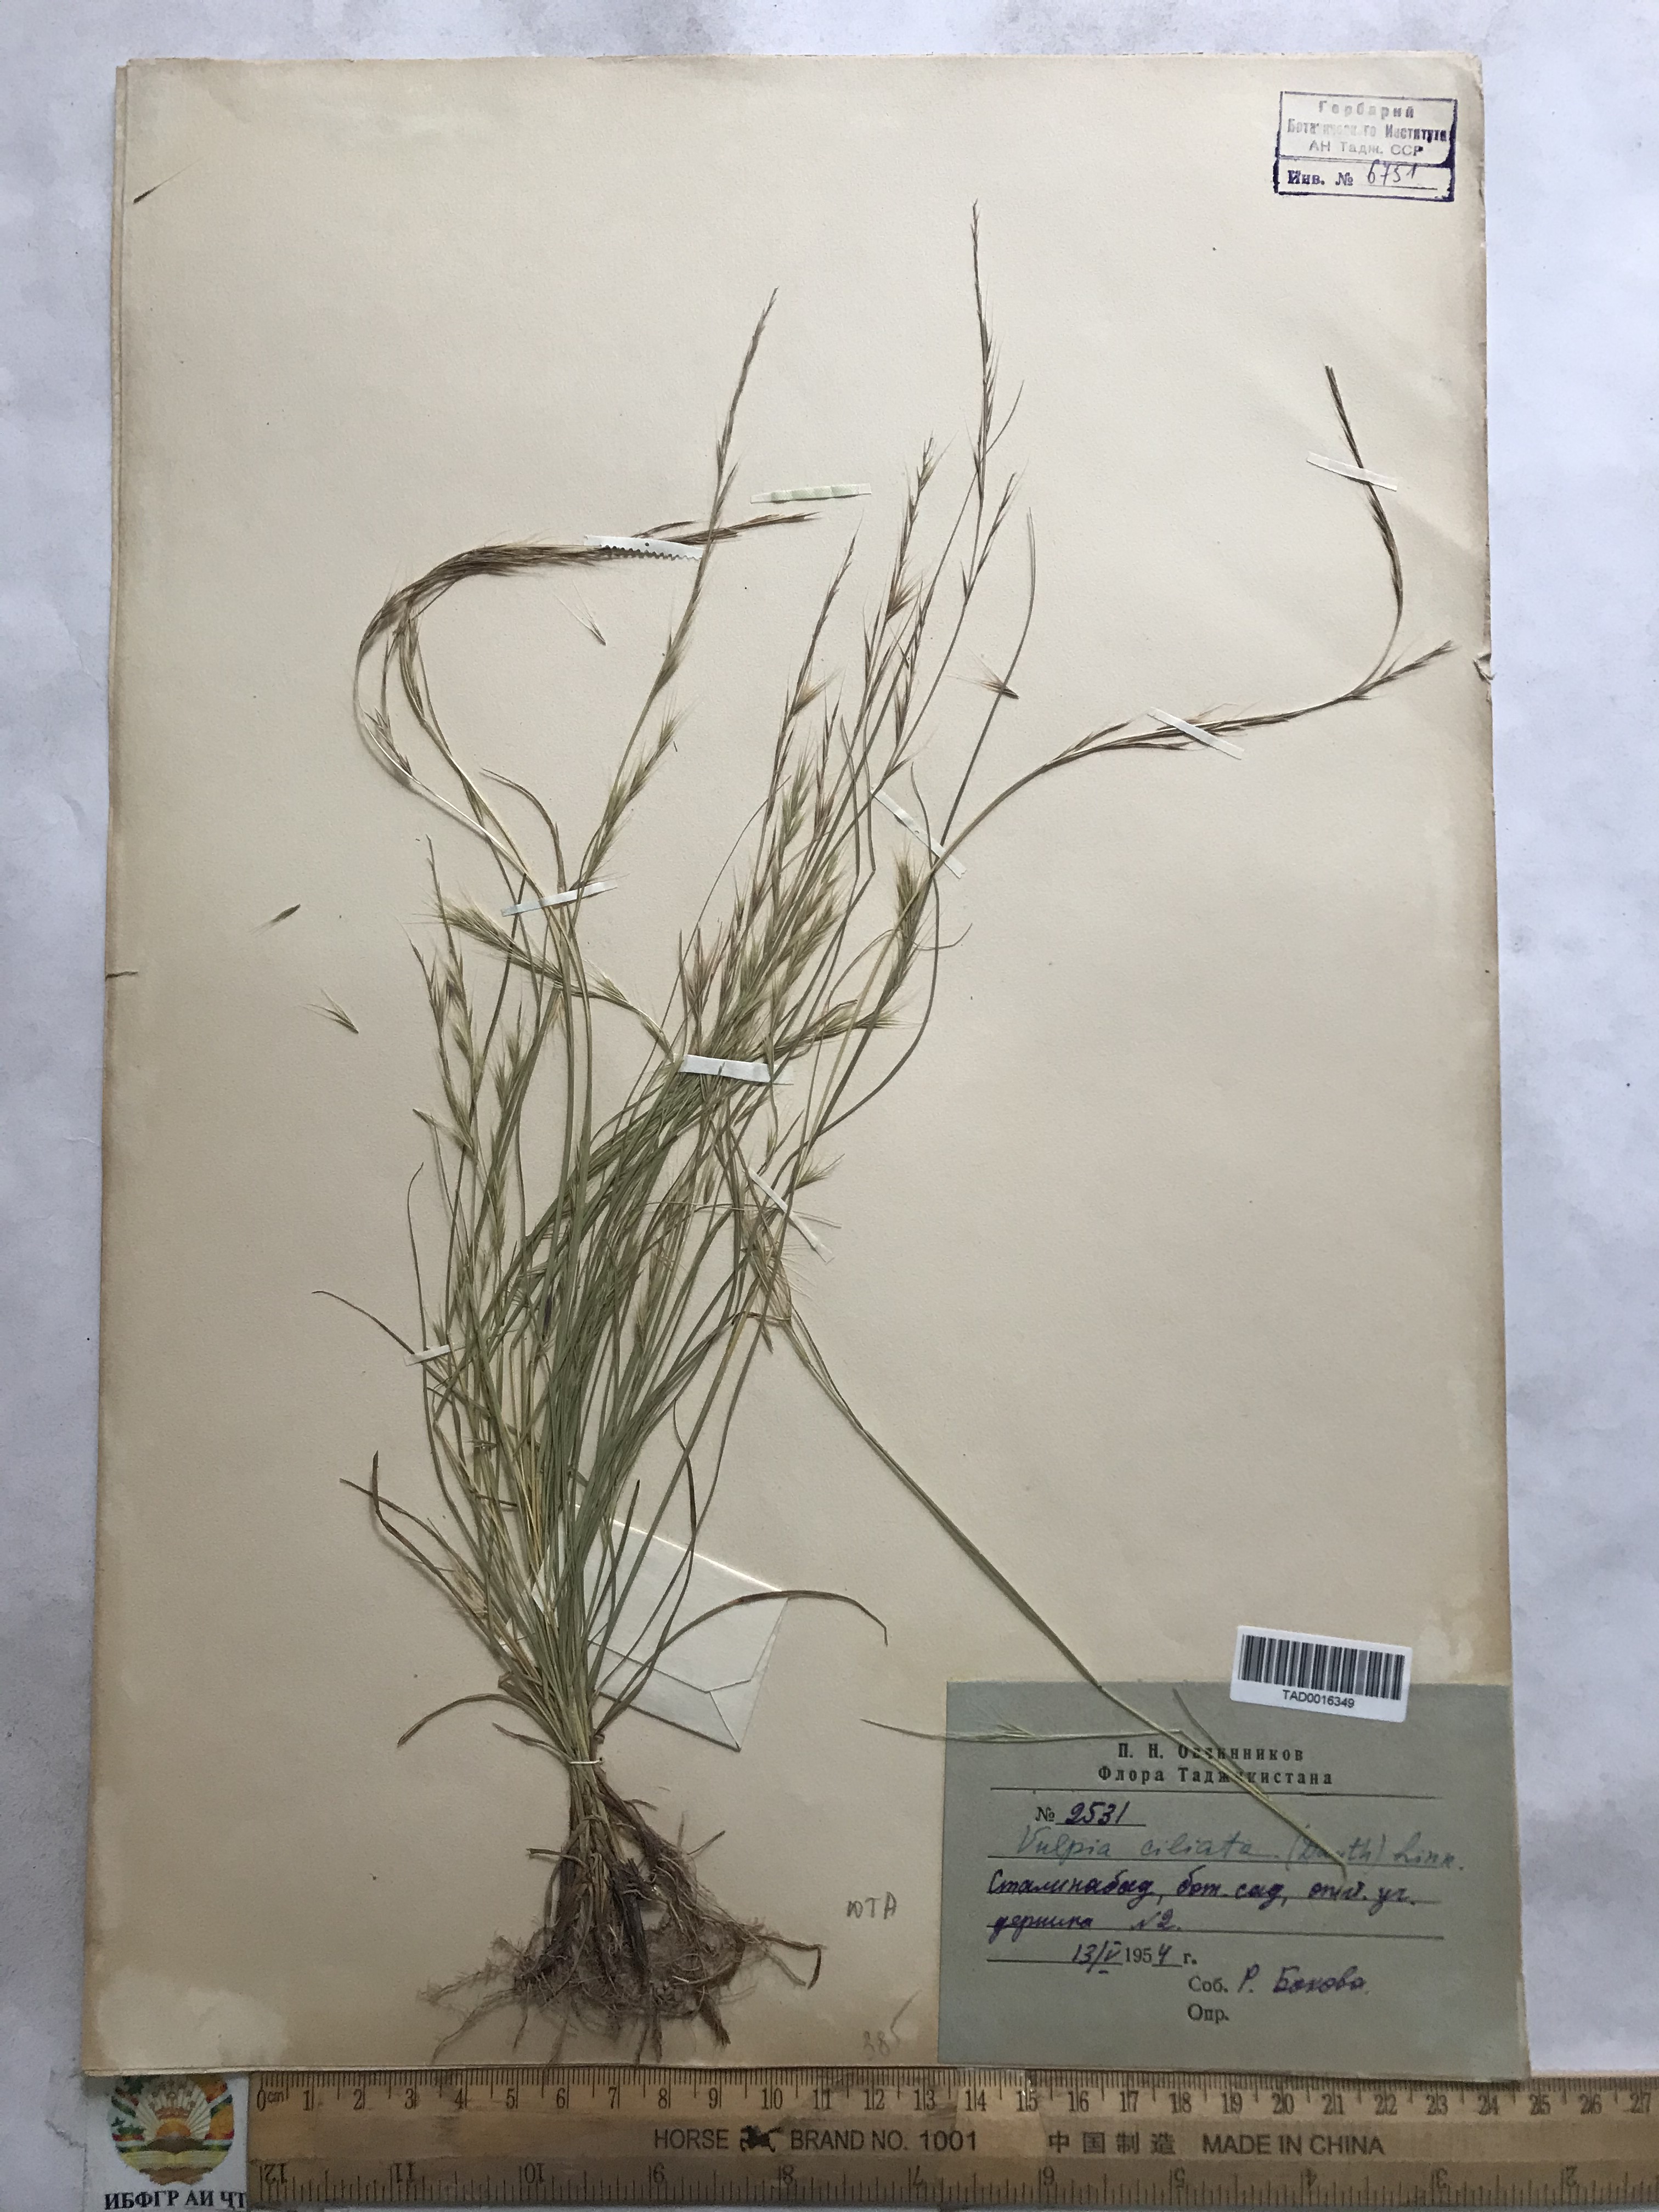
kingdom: Plantae
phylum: Tracheophyta
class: Liliopsida
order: Poales
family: Poaceae
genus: Festuca
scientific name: Festuca ambigua
